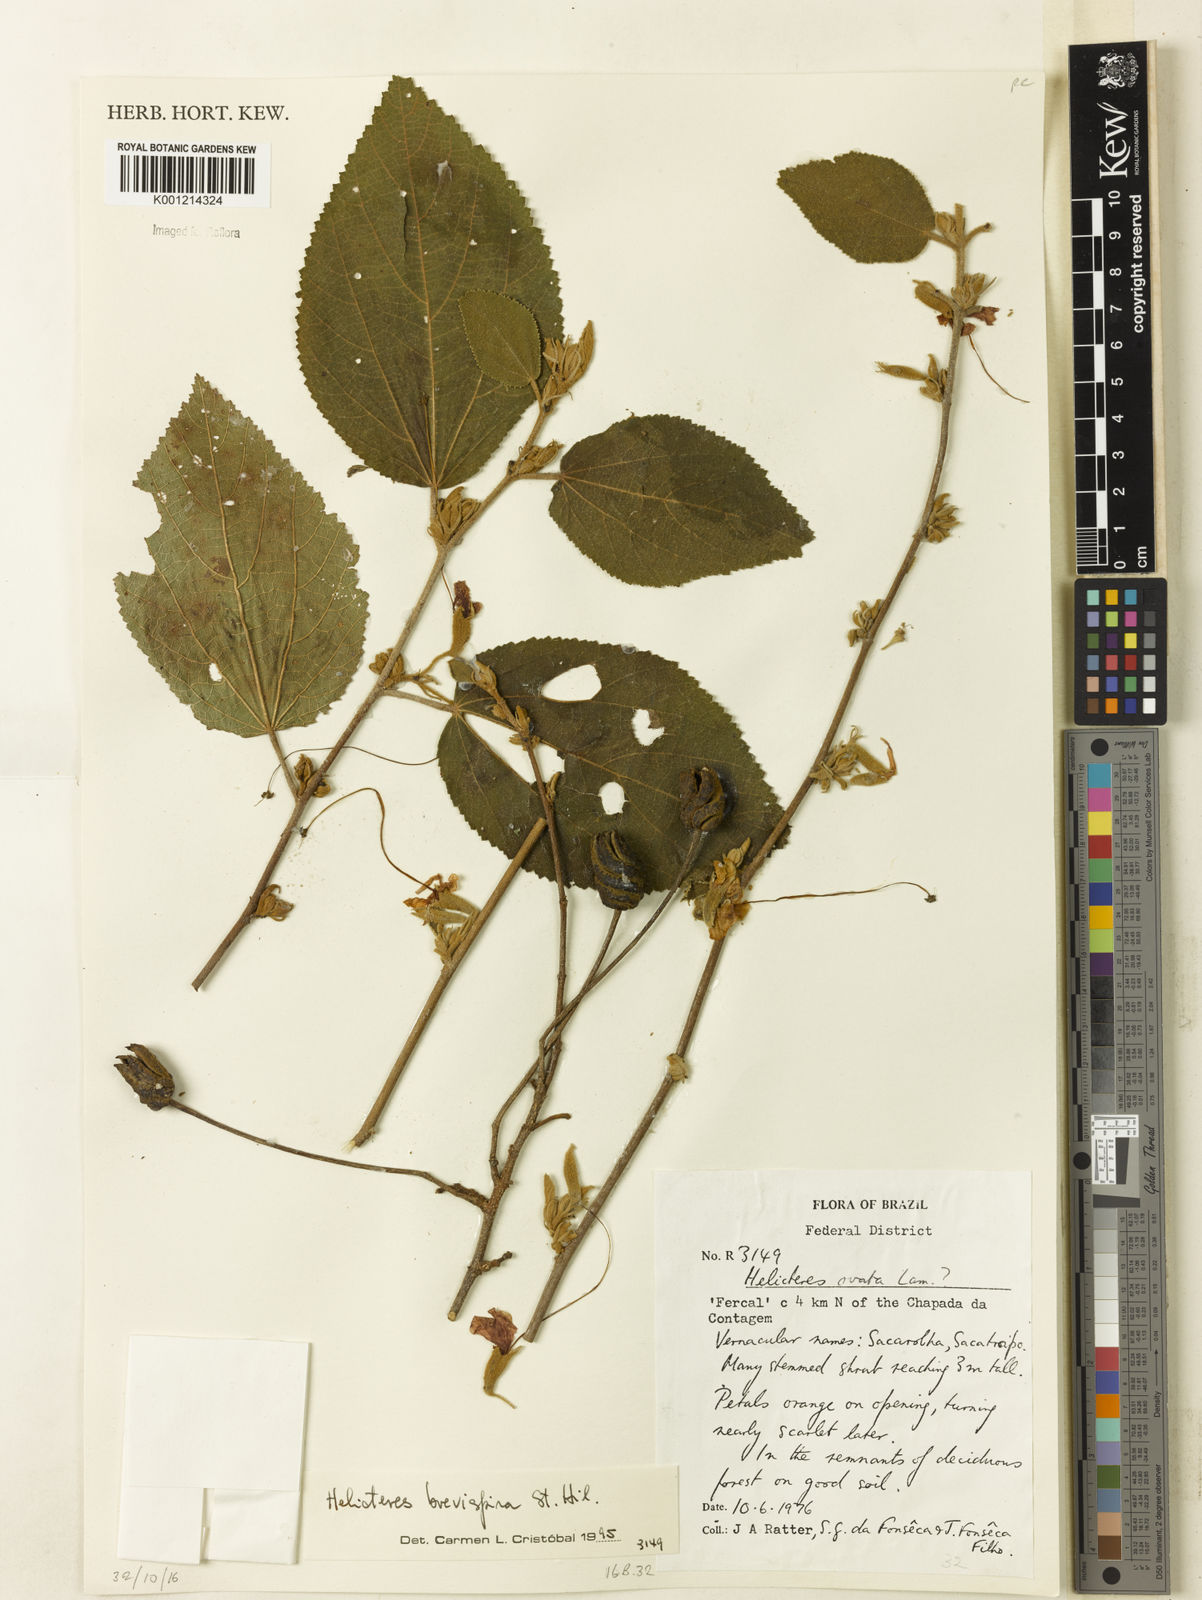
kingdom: Plantae
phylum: Tracheophyta
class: Magnoliopsida
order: Malvales
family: Malvaceae
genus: Helicteres
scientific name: Helicteres
